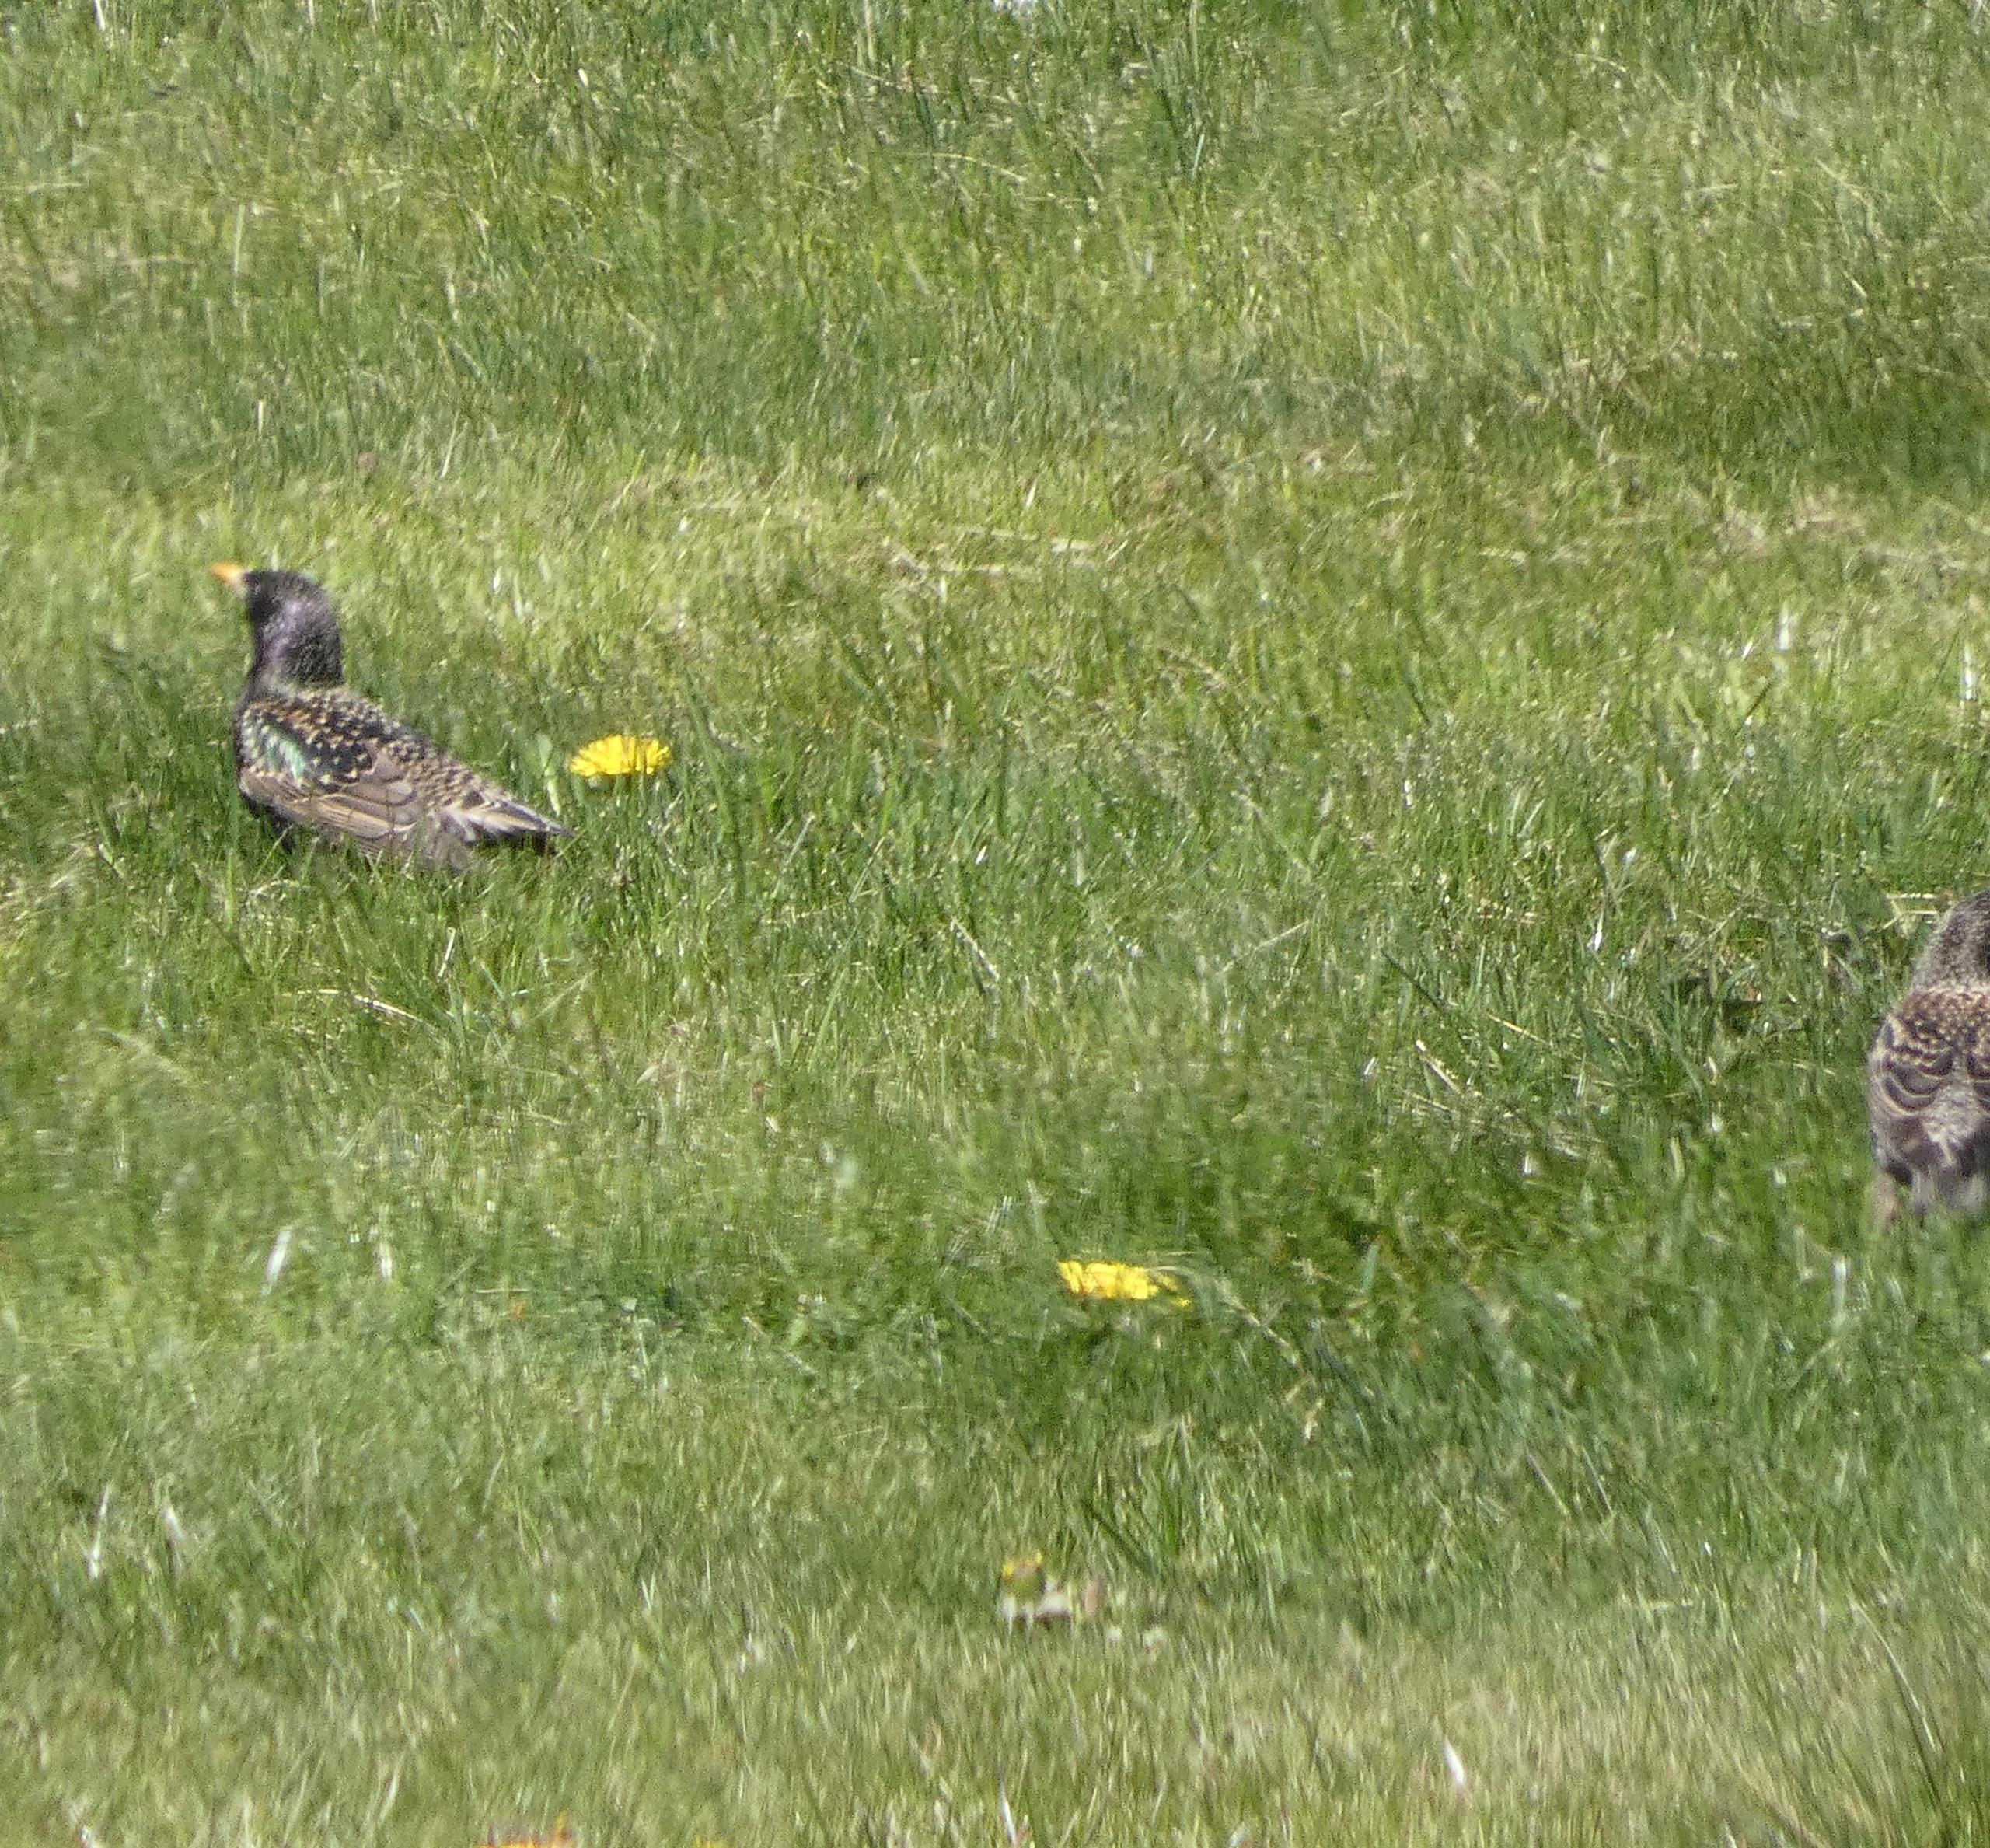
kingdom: Animalia
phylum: Chordata
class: Aves
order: Passeriformes
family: Sturnidae
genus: Sturnus
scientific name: Sturnus vulgaris
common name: Stær
